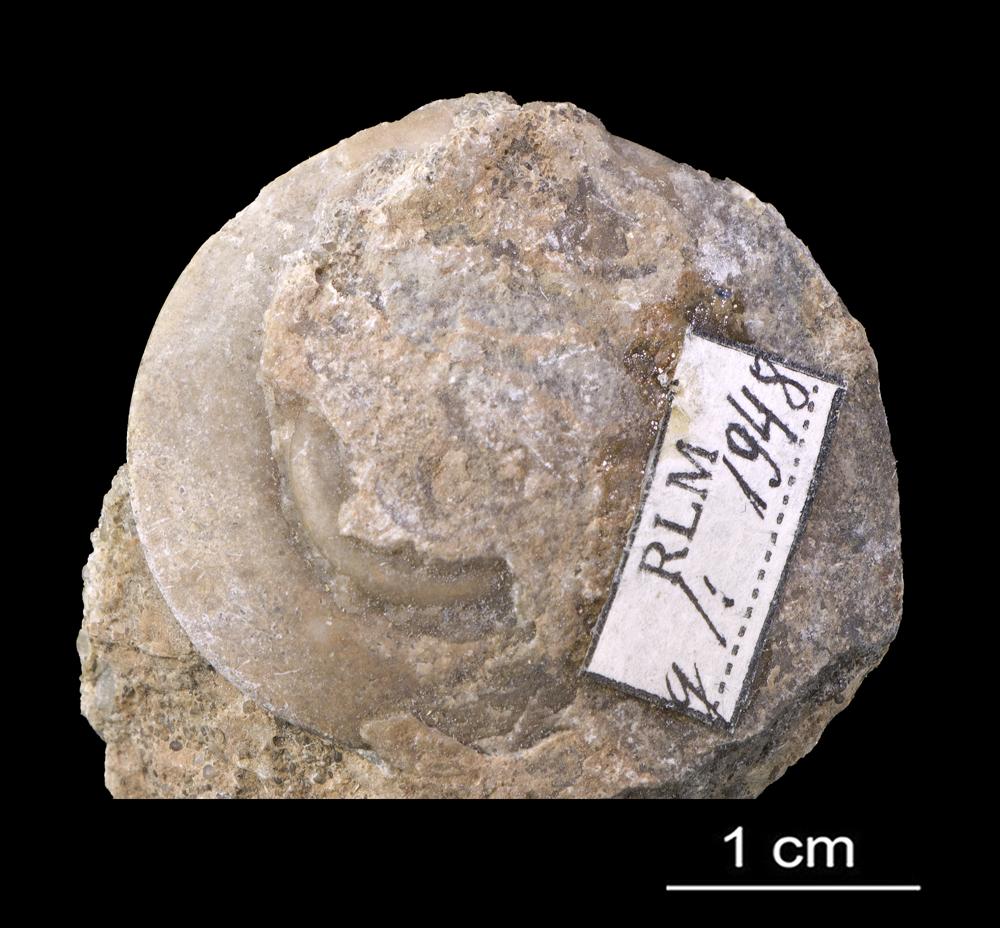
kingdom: Animalia
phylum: Mollusca
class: Gastropoda
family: Lesueurillidae
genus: Pararaphistoma
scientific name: Pararaphistoma Helicites qualteriata
